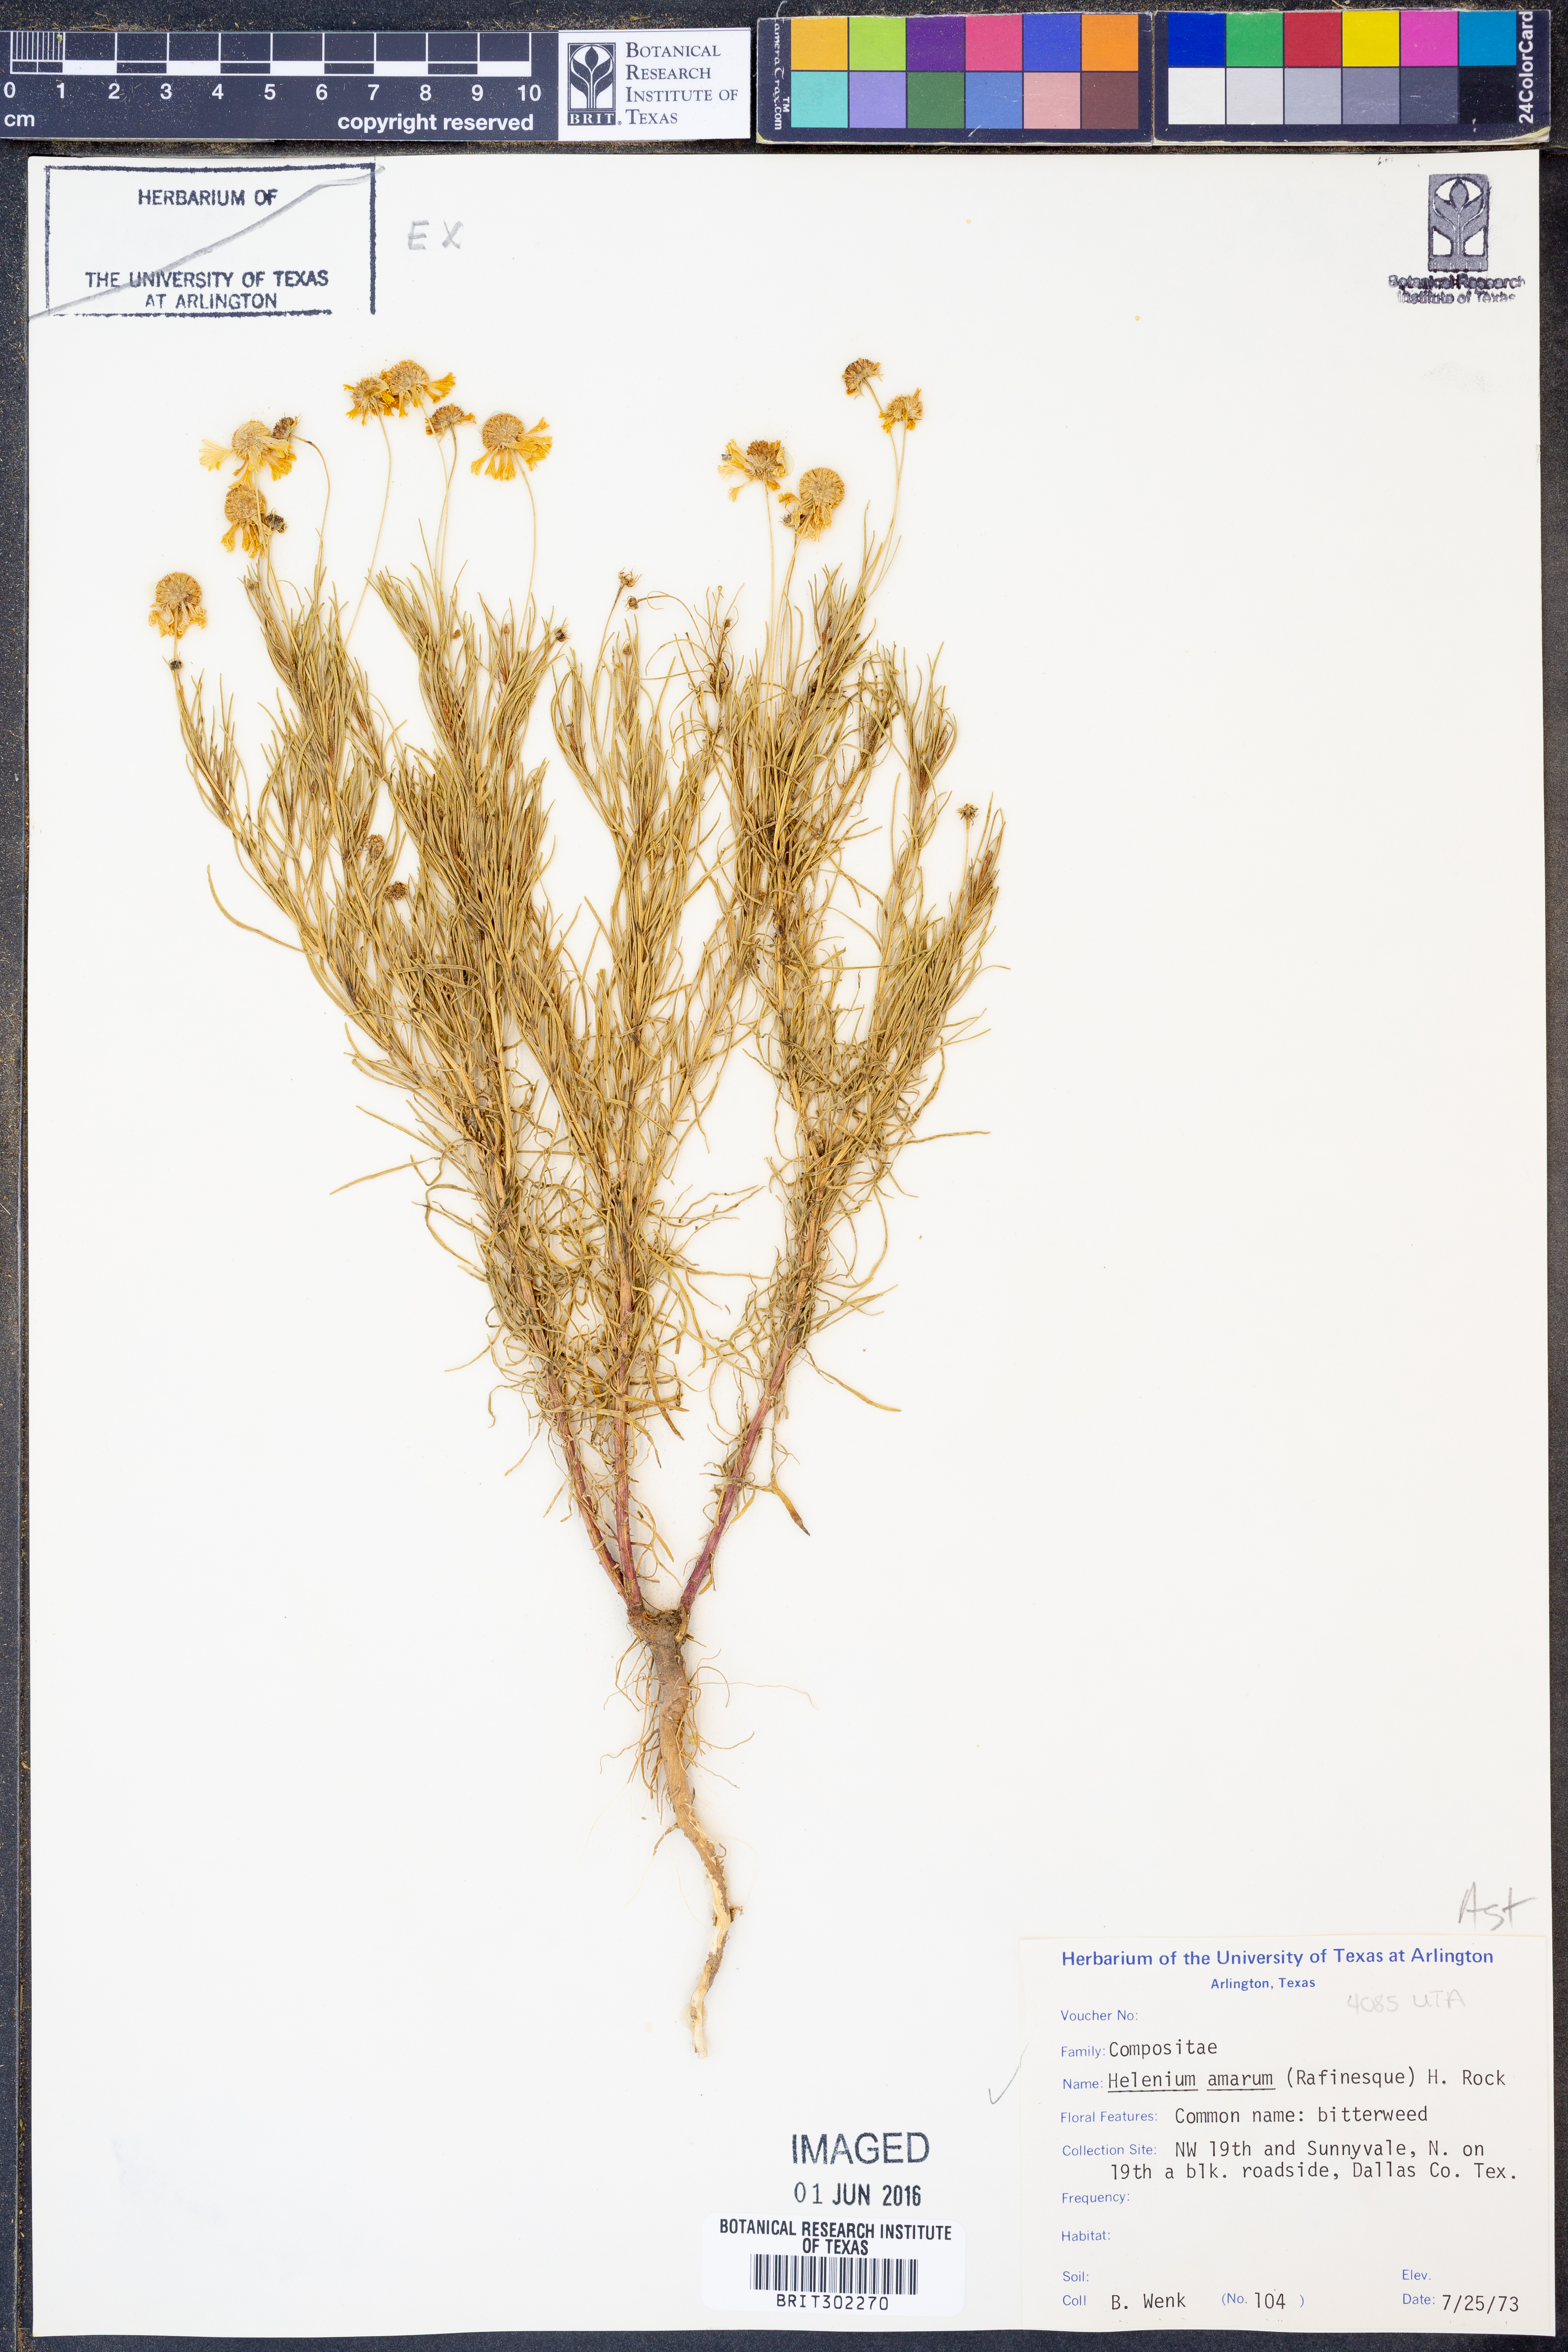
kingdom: Plantae
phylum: Tracheophyta
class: Magnoliopsida
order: Asterales
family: Asteraceae
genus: Helenium
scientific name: Helenium amarum
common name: Bitter sneezeweed
